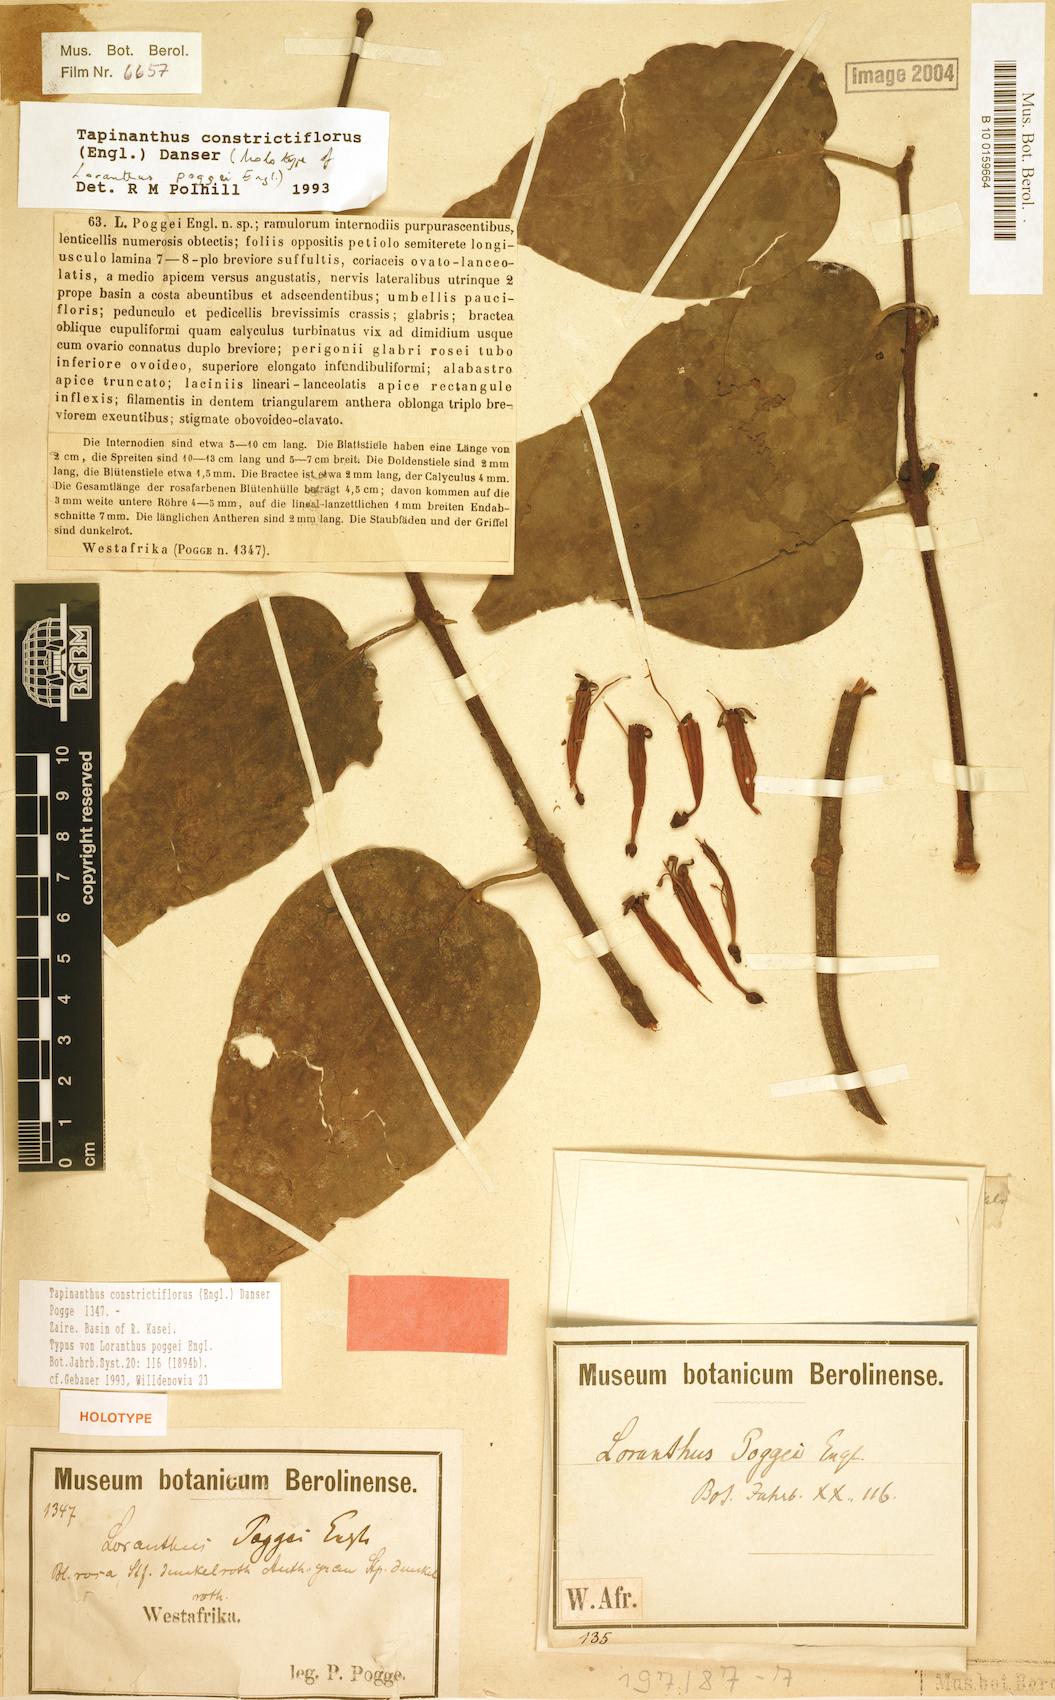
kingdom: Plantae
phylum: Tracheophyta
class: Magnoliopsida
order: Santalales
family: Loranthaceae
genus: Tapinanthus
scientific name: Tapinanthus constrictiflorus
